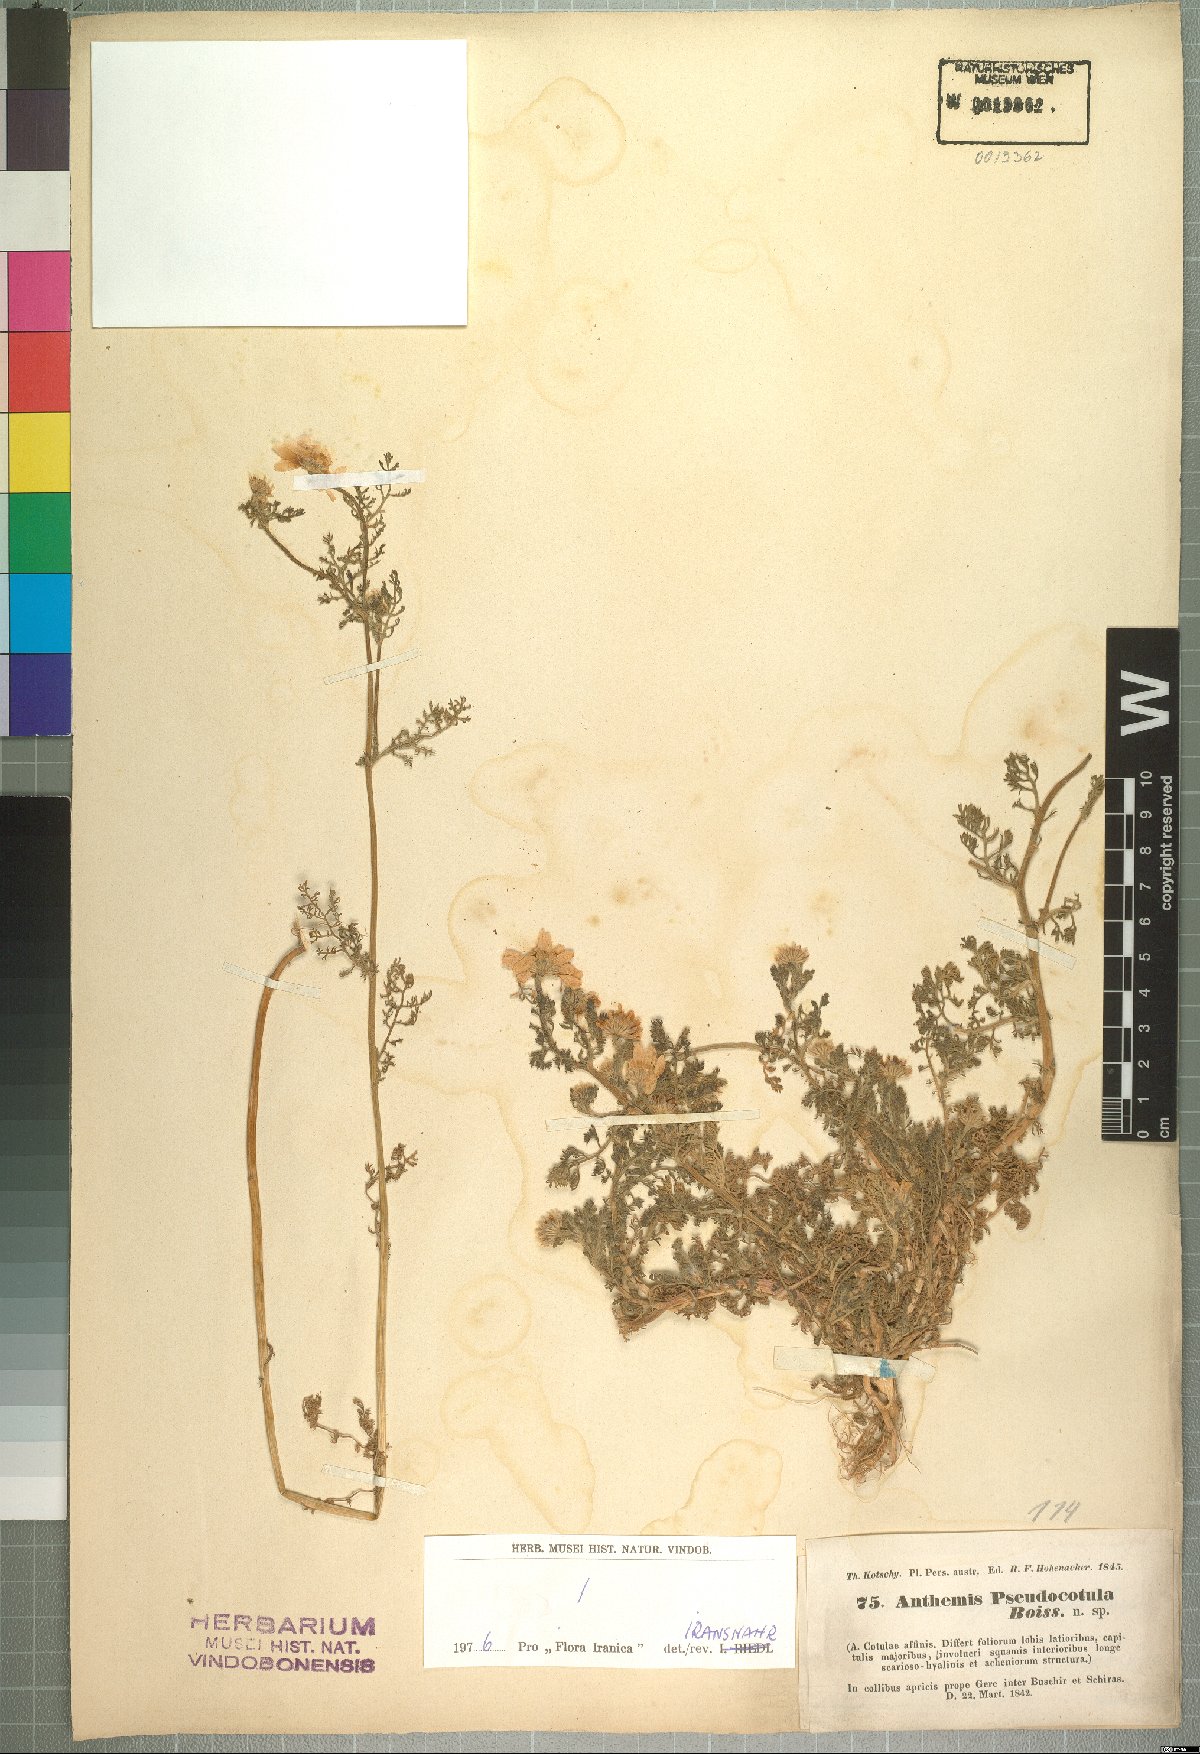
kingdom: Plantae
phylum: Tracheophyta
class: Magnoliopsida
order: Asterales
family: Asteraceae
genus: Anthemis
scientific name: Anthemis pseudocotula
